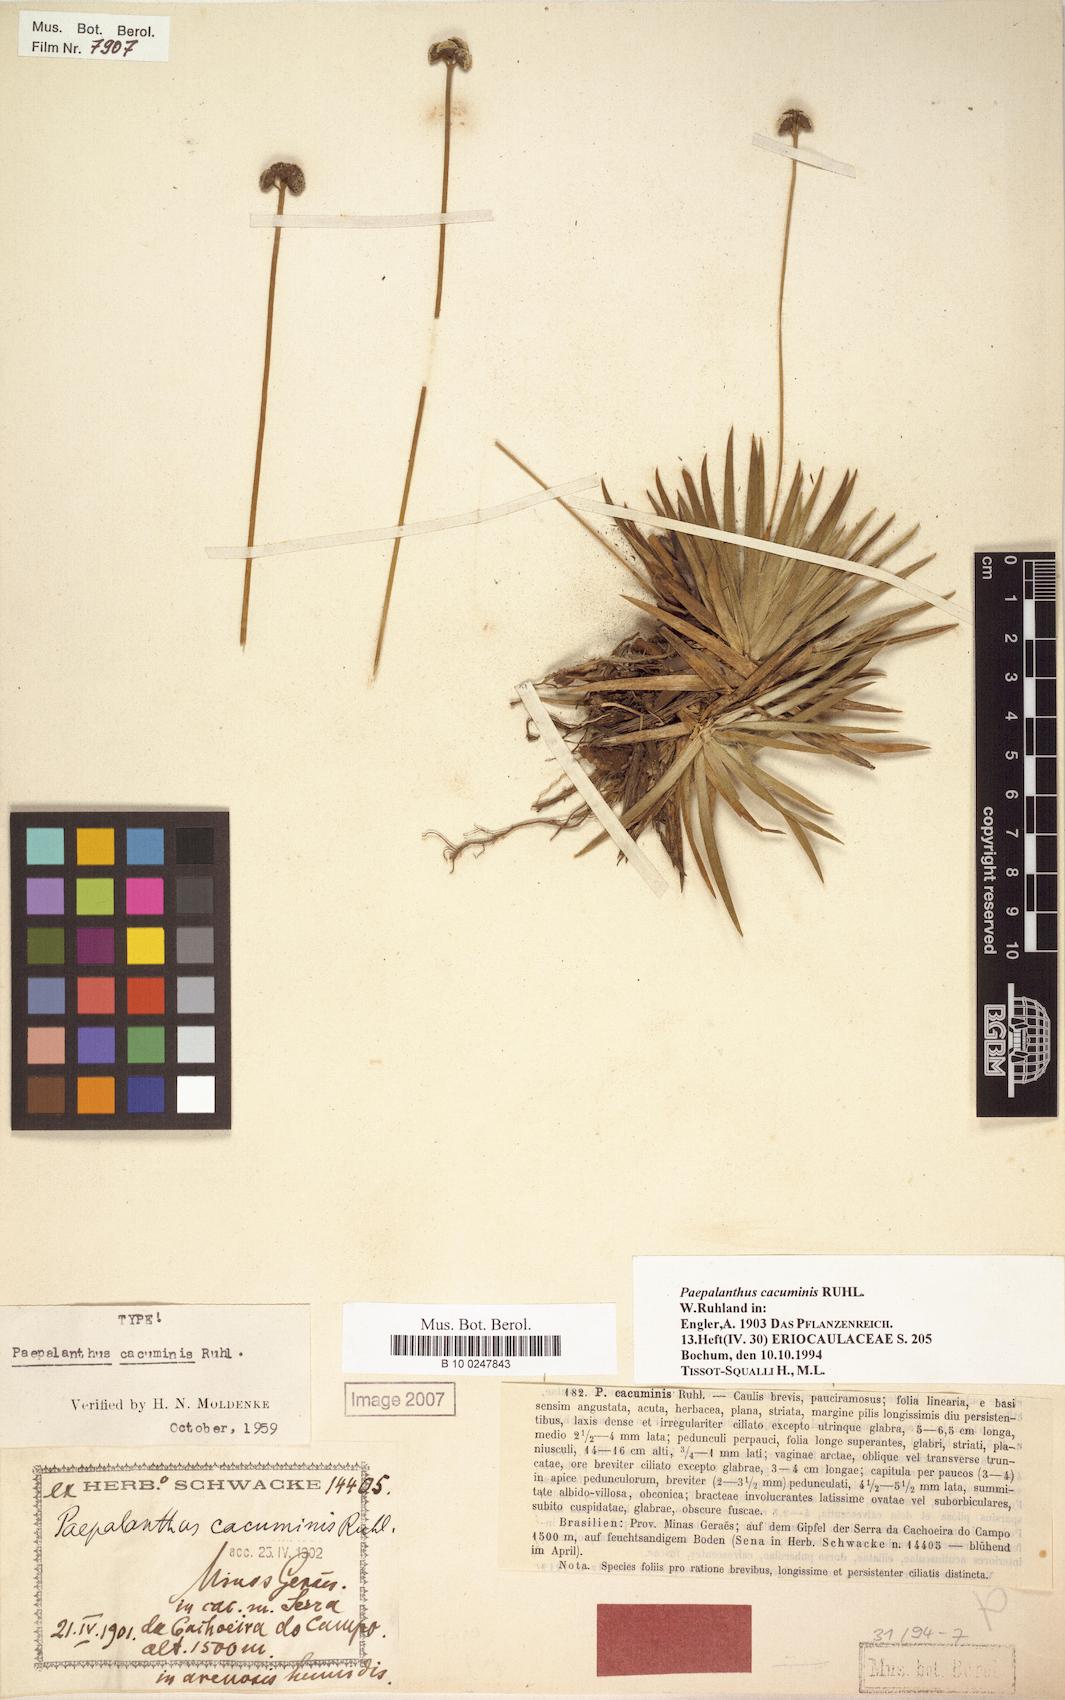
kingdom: Plantae
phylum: Tracheophyta
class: Liliopsida
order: Poales
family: Eriocaulaceae
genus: Paepalanthus
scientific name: Paepalanthus cacuminis
